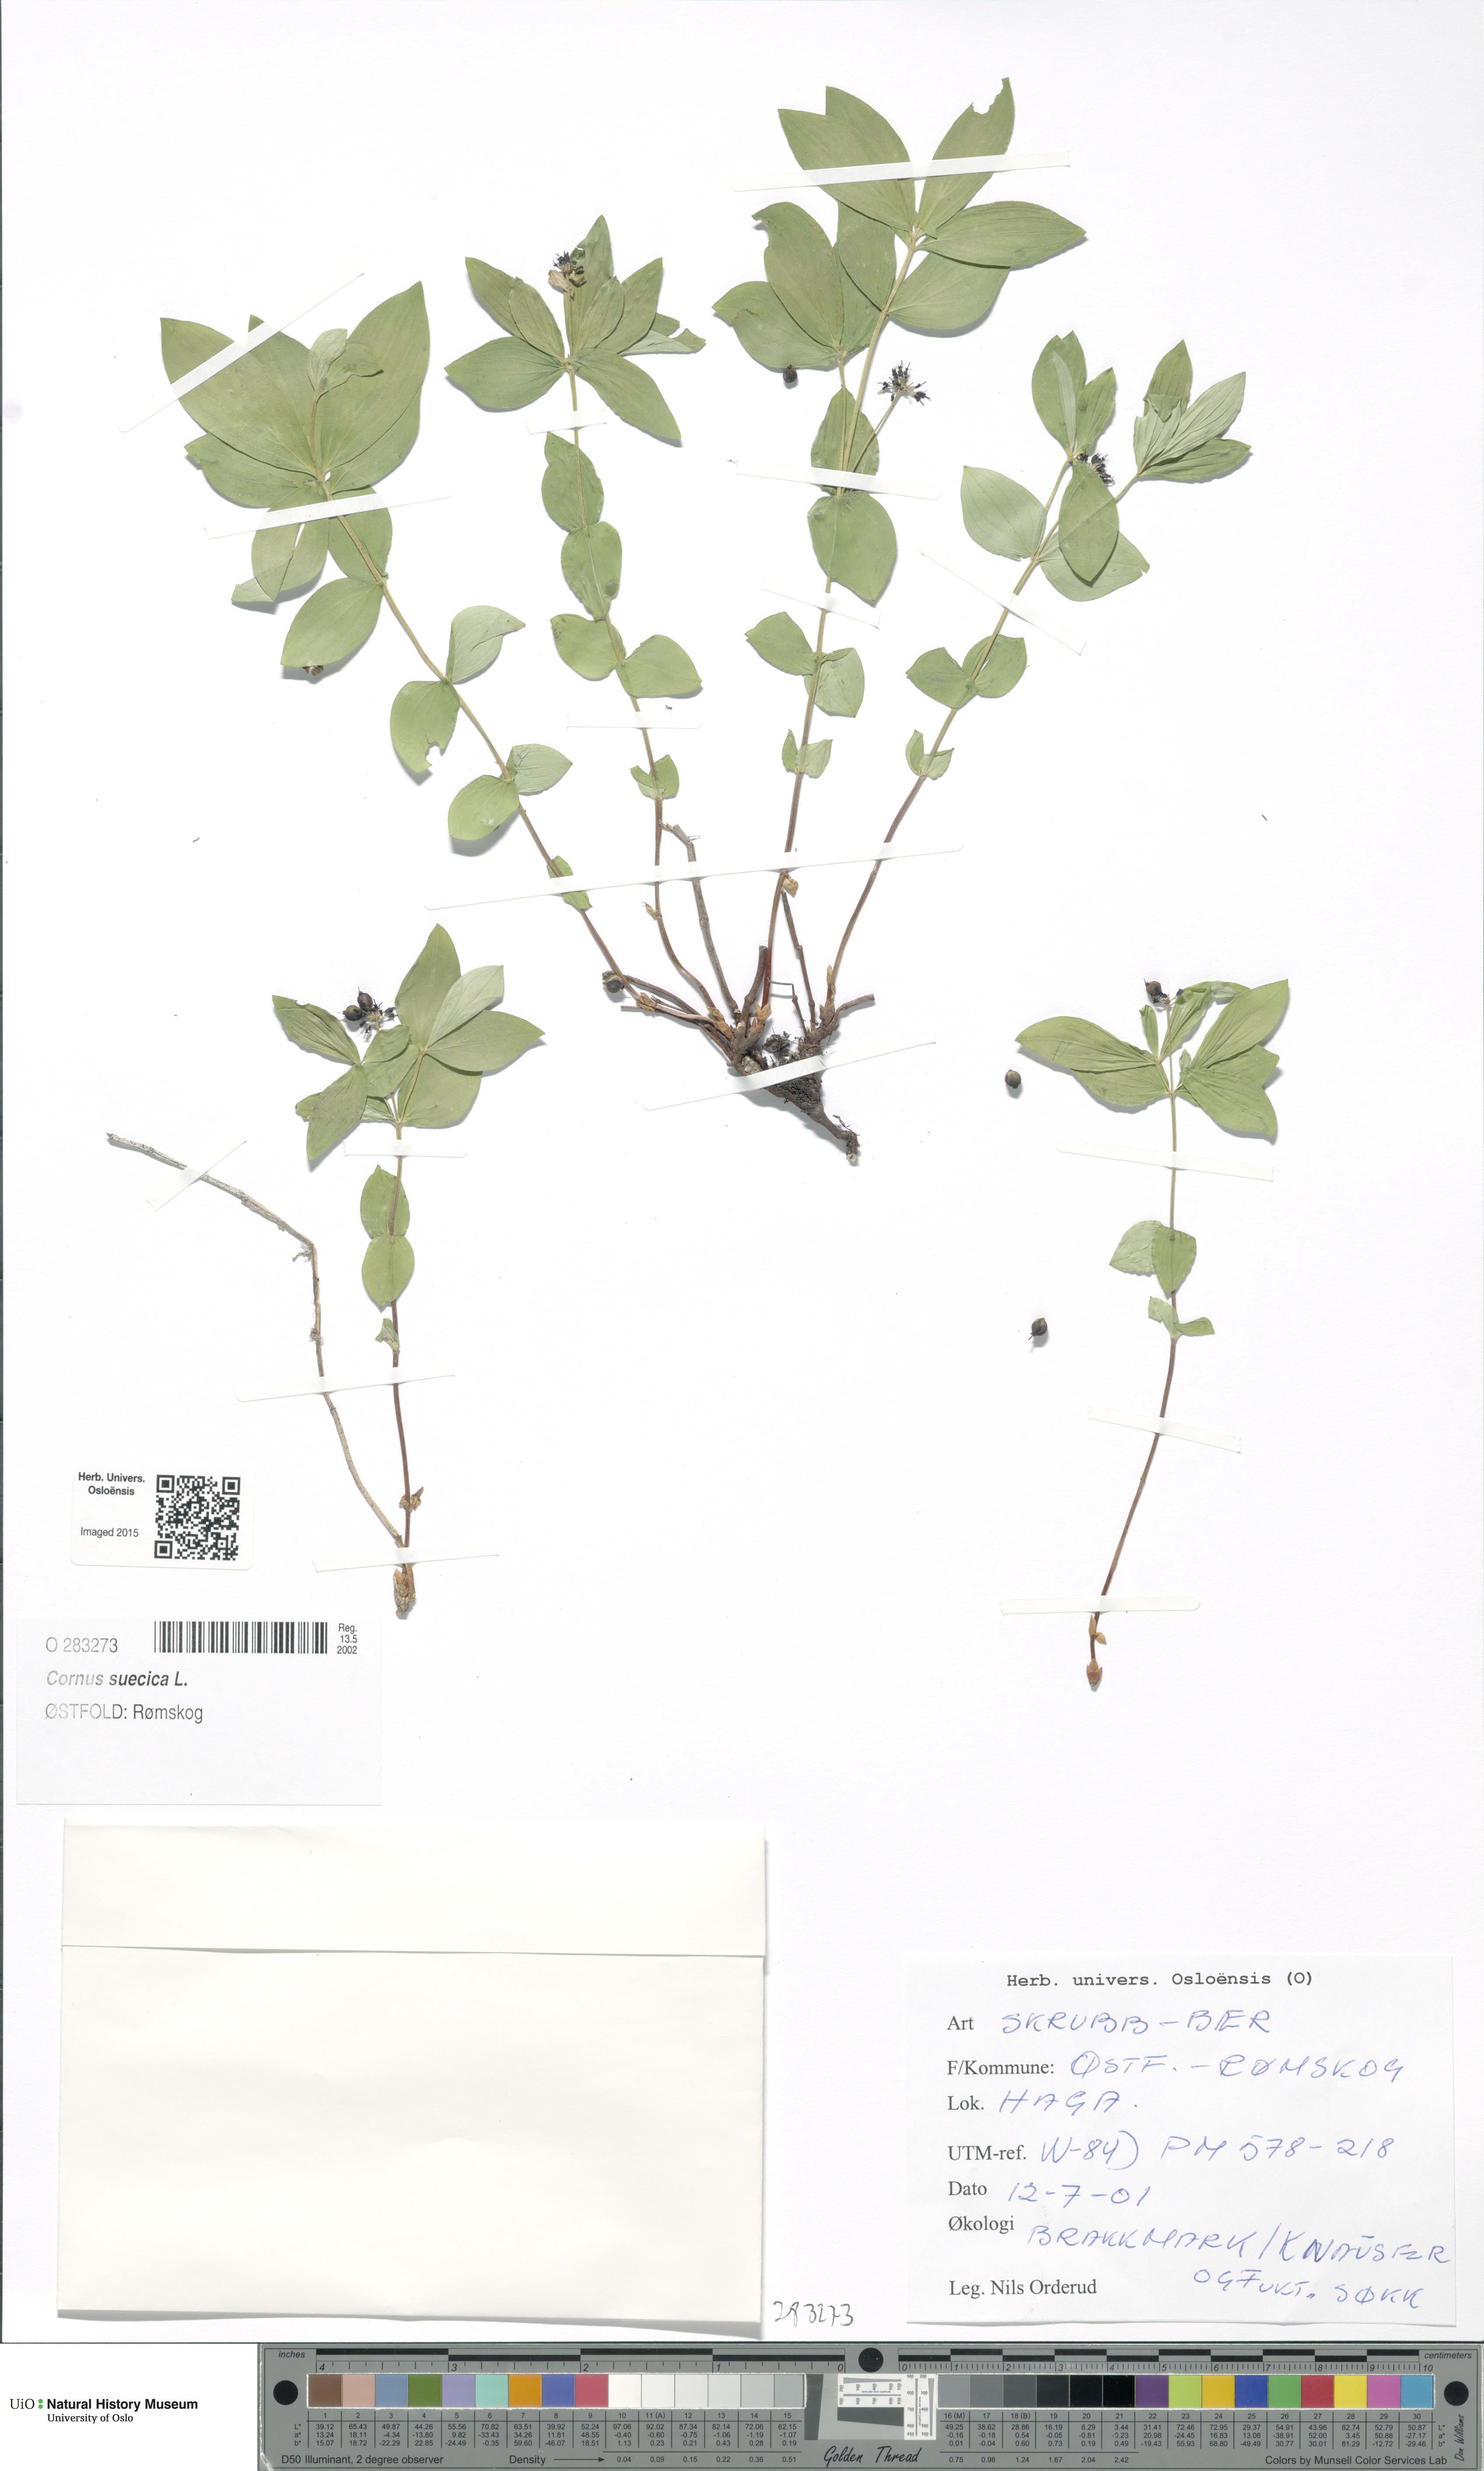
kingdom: Plantae
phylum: Tracheophyta
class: Magnoliopsida
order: Cornales
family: Cornaceae
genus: Cornus
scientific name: Cornus suecica
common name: Dwarf cornel
